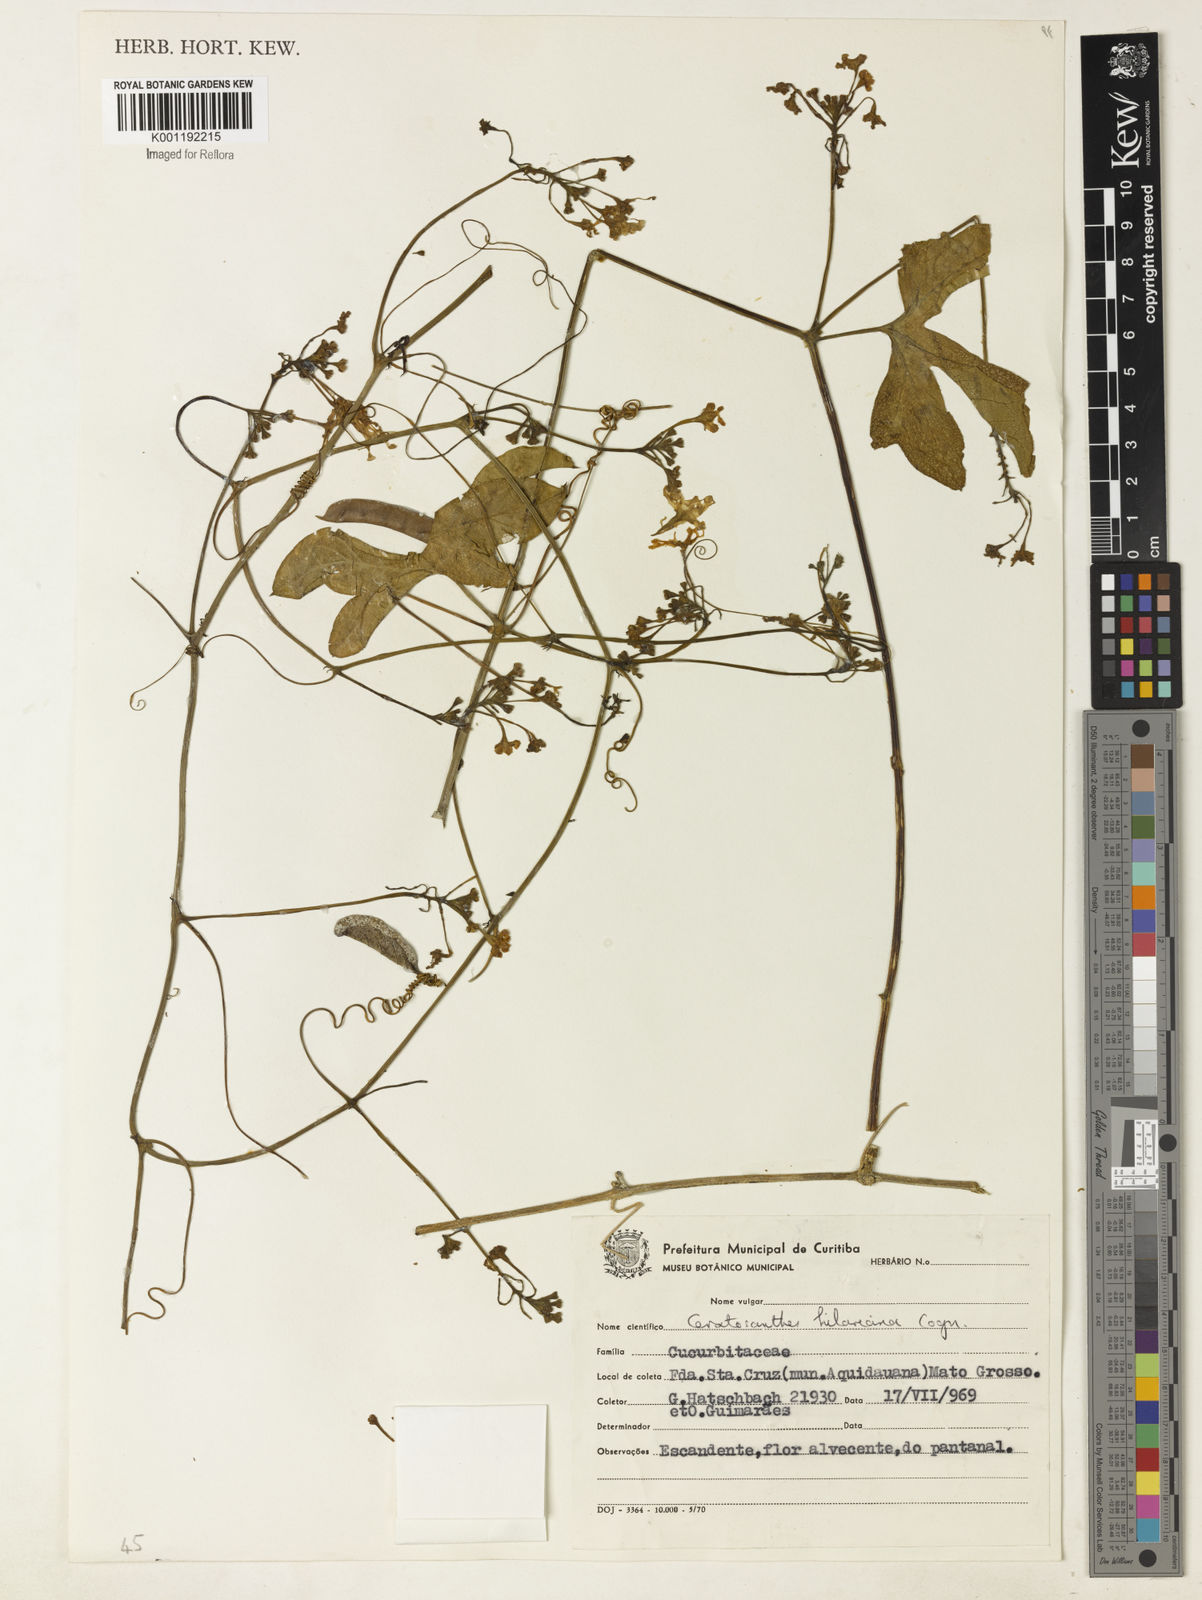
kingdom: Plantae
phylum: Tracheophyta
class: Magnoliopsida
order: Cucurbitales
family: Cucurbitaceae
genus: Ceratosanthes
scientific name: Ceratosanthes hilariana
